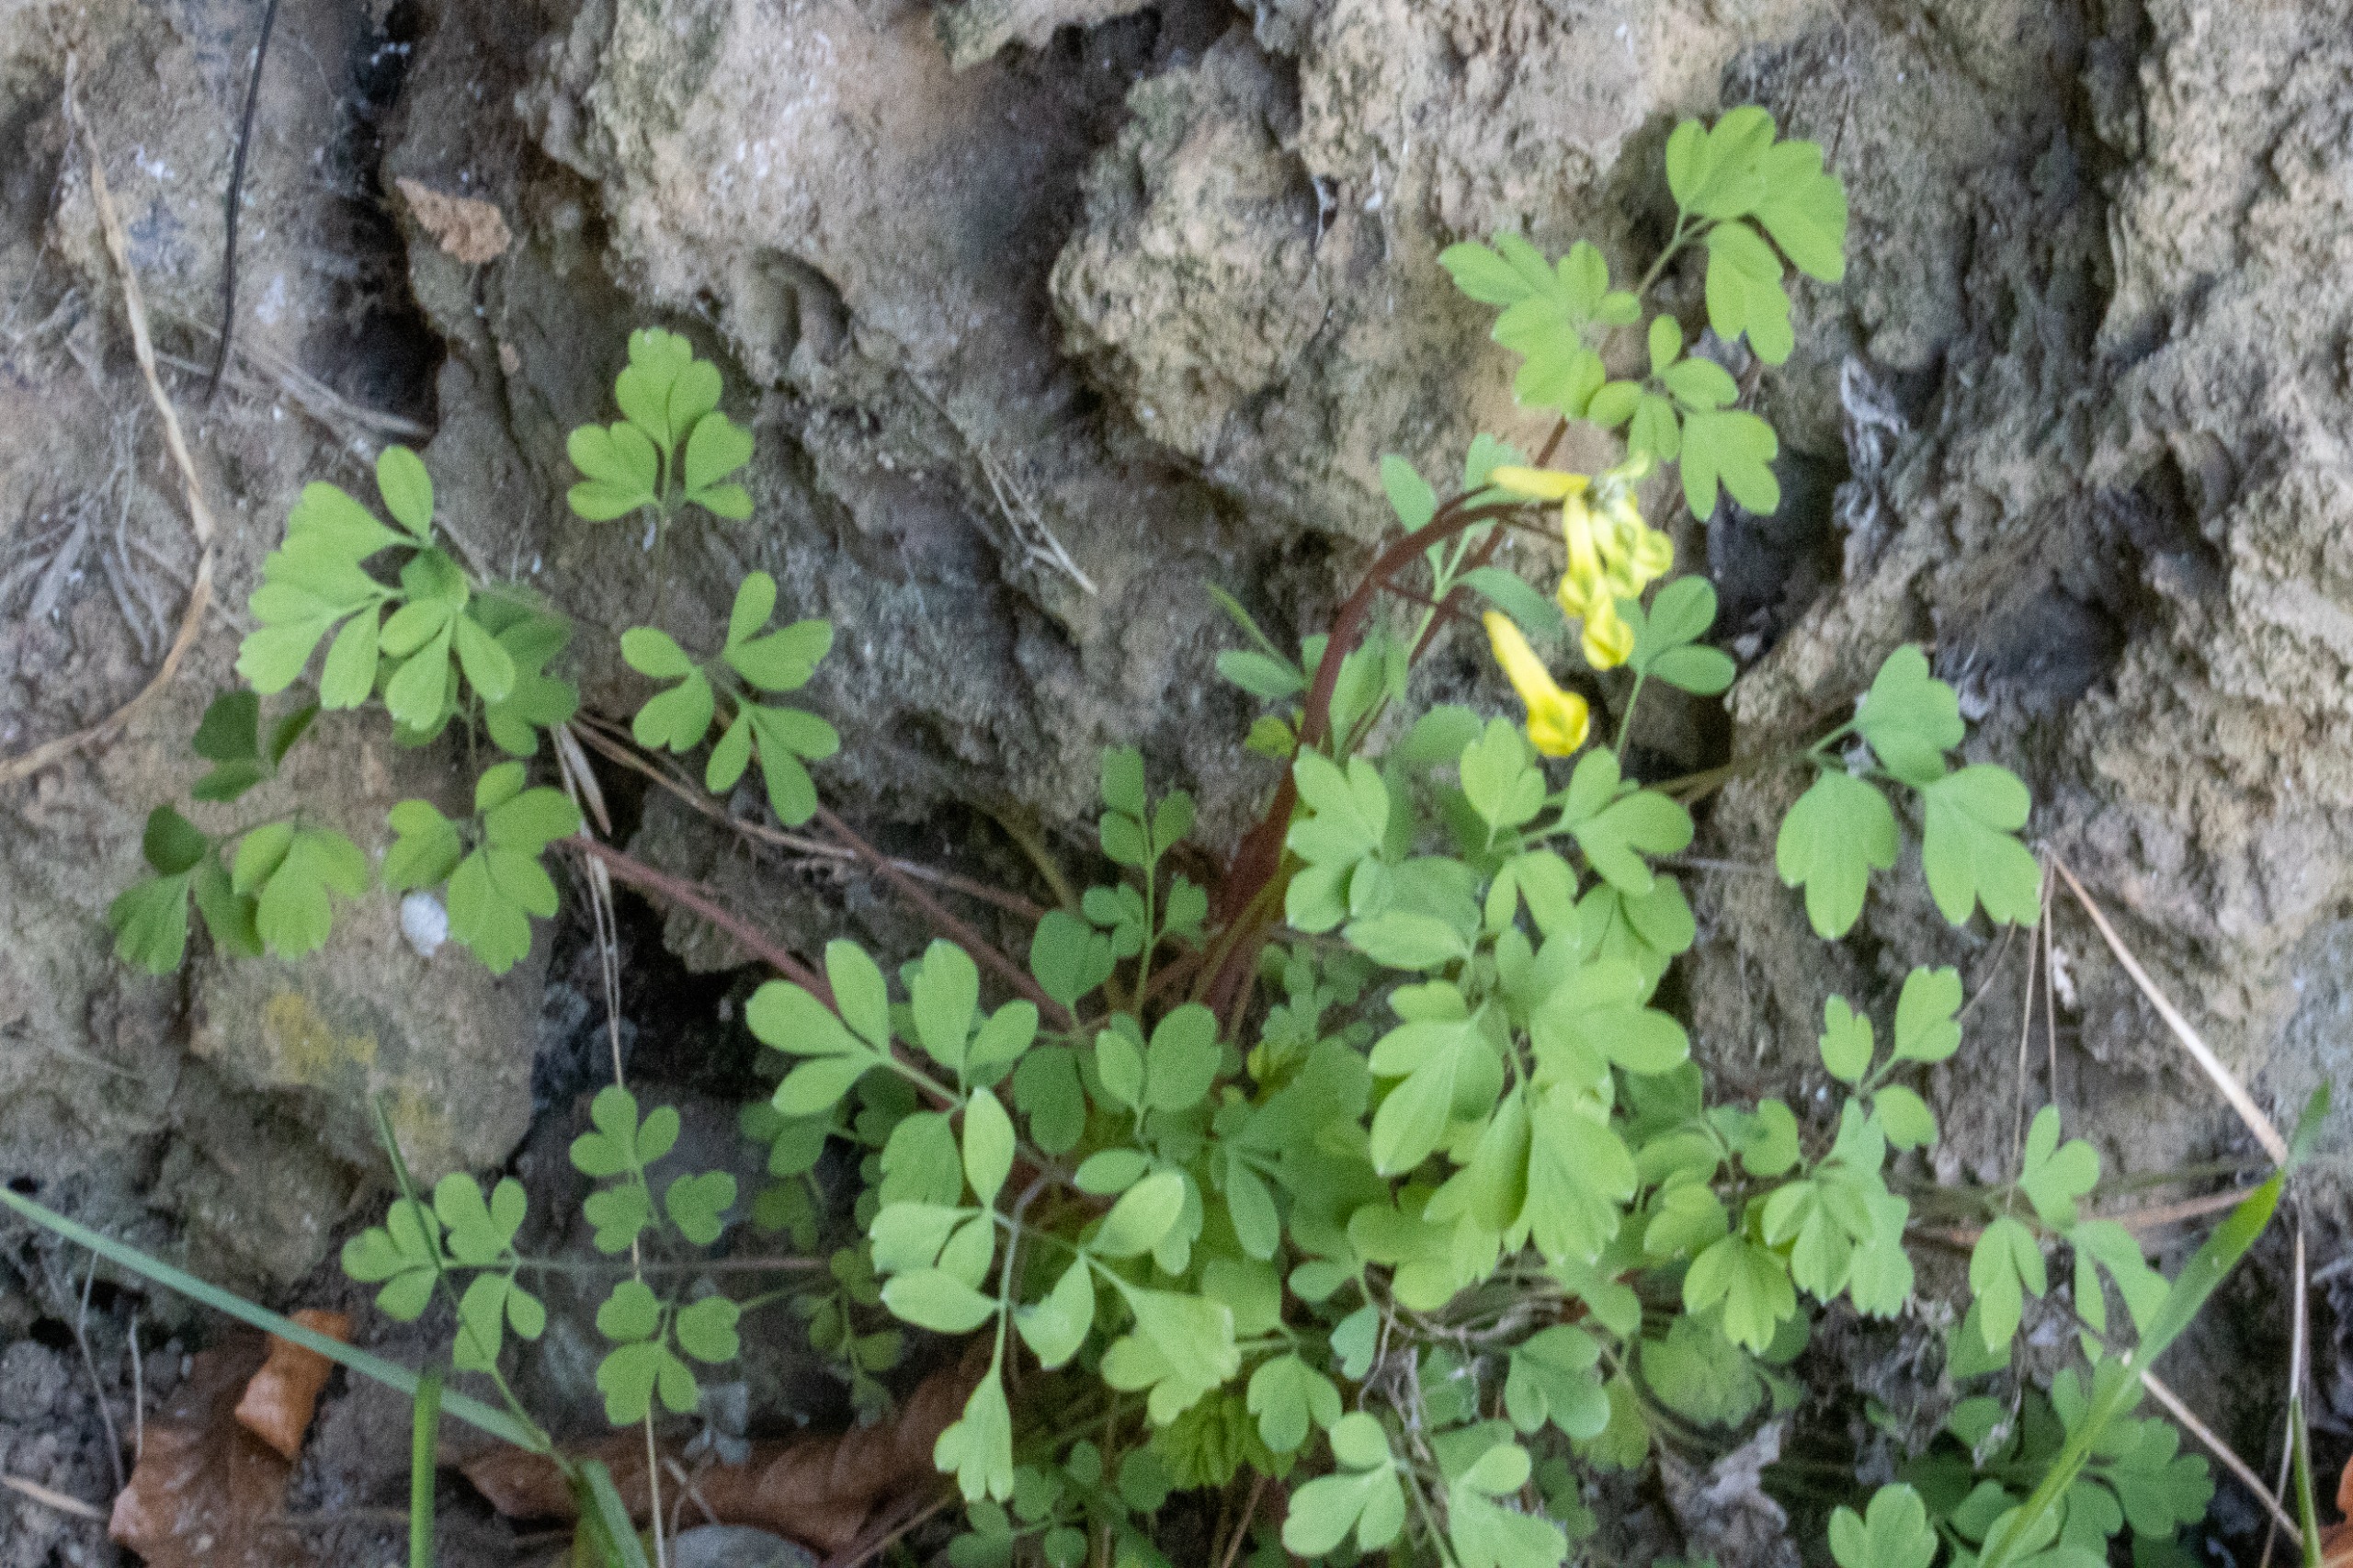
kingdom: Plantae
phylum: Tracheophyta
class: Magnoliopsida
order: Ranunculales
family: Papaveraceae
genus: Pseudofumaria
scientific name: Pseudofumaria lutea
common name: Gul lærkespore
